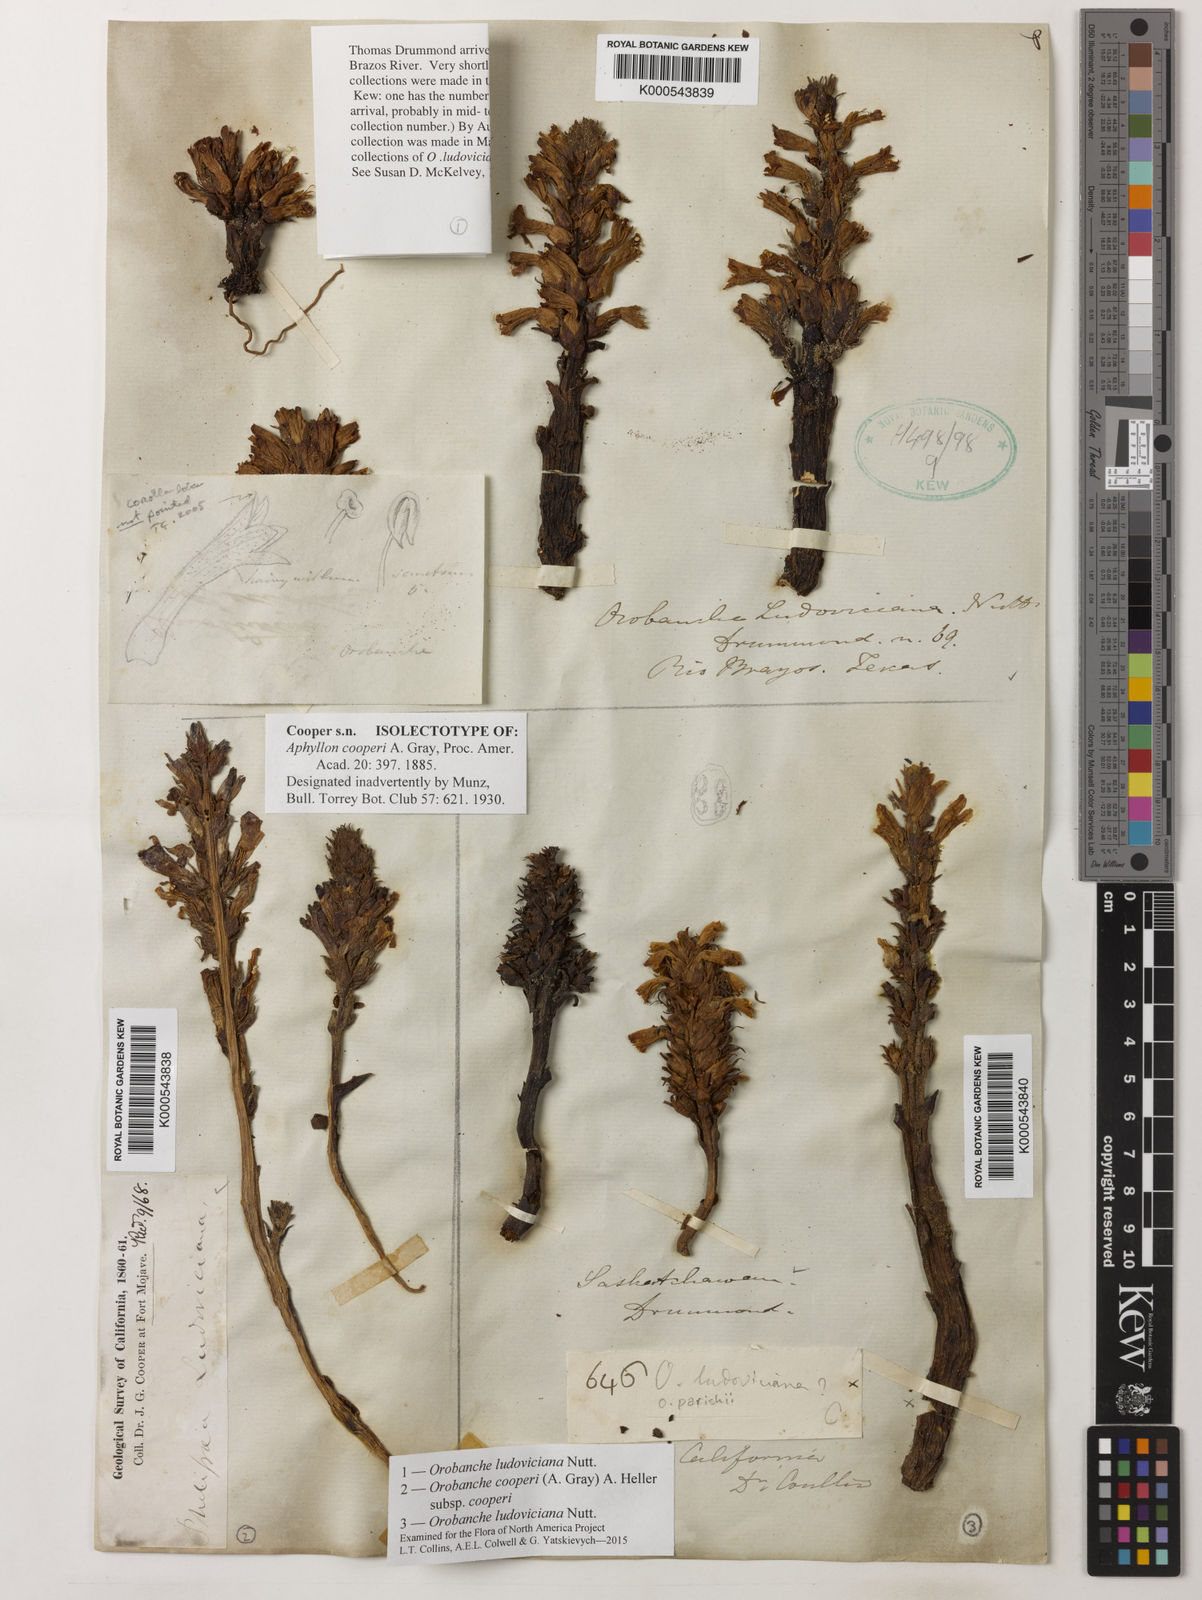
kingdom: Plantae
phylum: Tracheophyta
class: Magnoliopsida
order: Lamiales
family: Orobanchaceae
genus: Aphyllon
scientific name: Aphyllon cooperi
